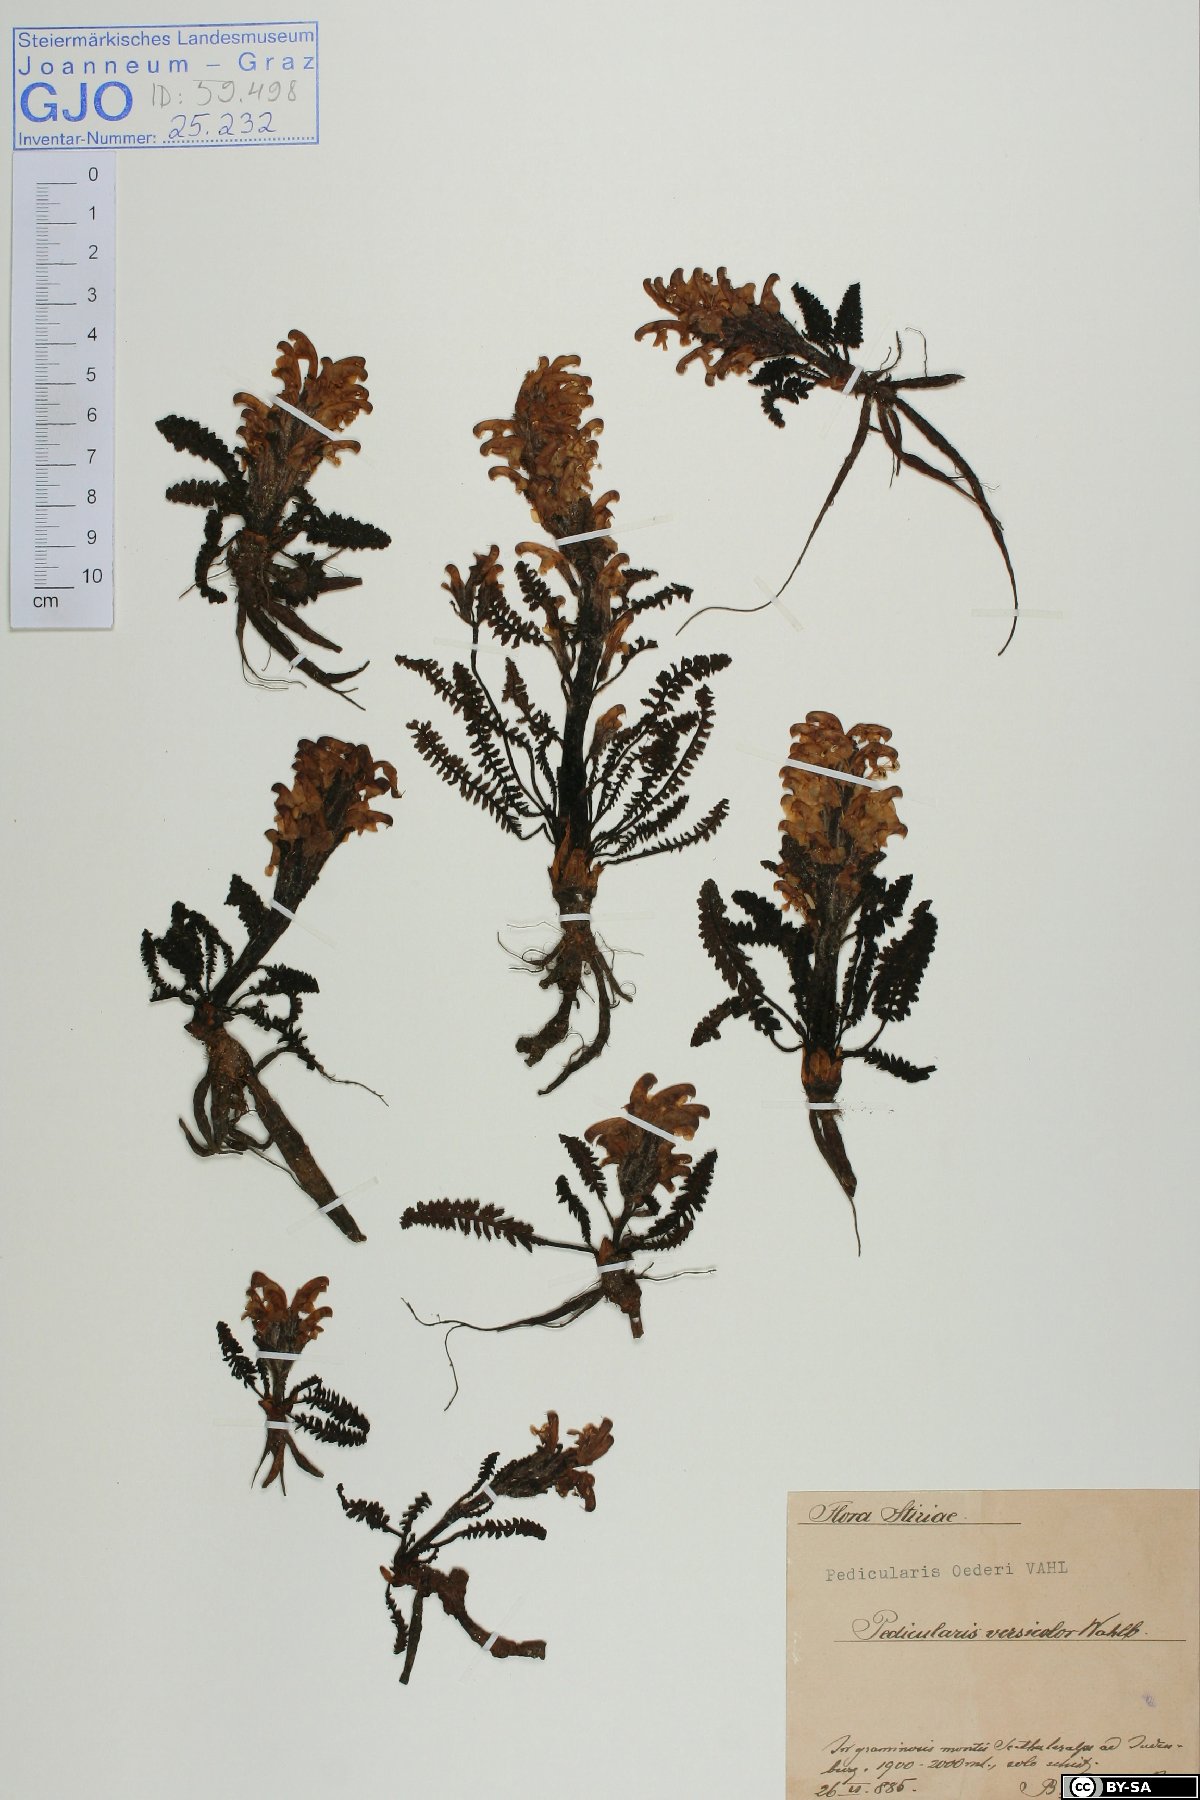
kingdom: Plantae
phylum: Tracheophyta
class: Magnoliopsida
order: Lamiales
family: Orobanchaceae
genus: Pedicularis
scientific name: Pedicularis oederi
